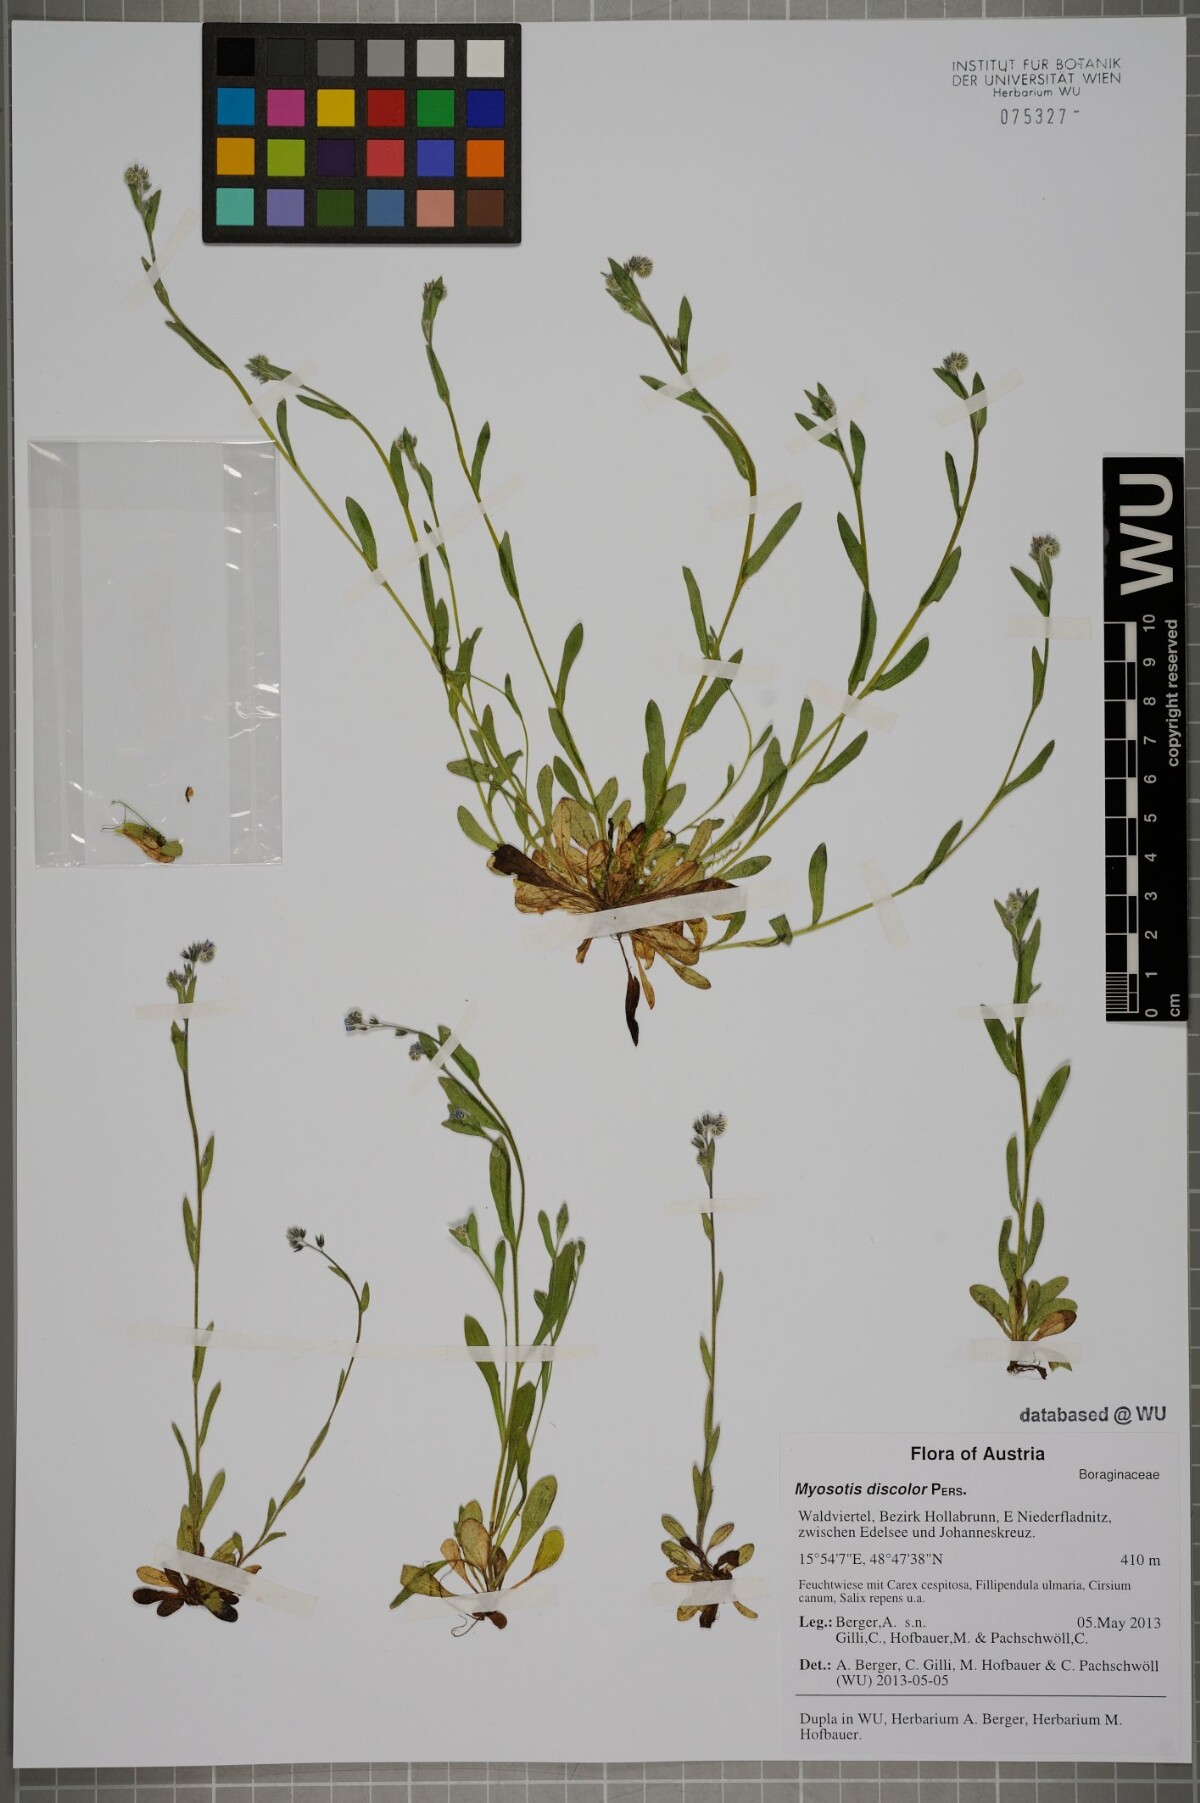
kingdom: Plantae
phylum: Tracheophyta
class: Magnoliopsida
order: Boraginales
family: Boraginaceae
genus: Myosotis
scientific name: Myosotis discolor
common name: Changing forget-me-not
